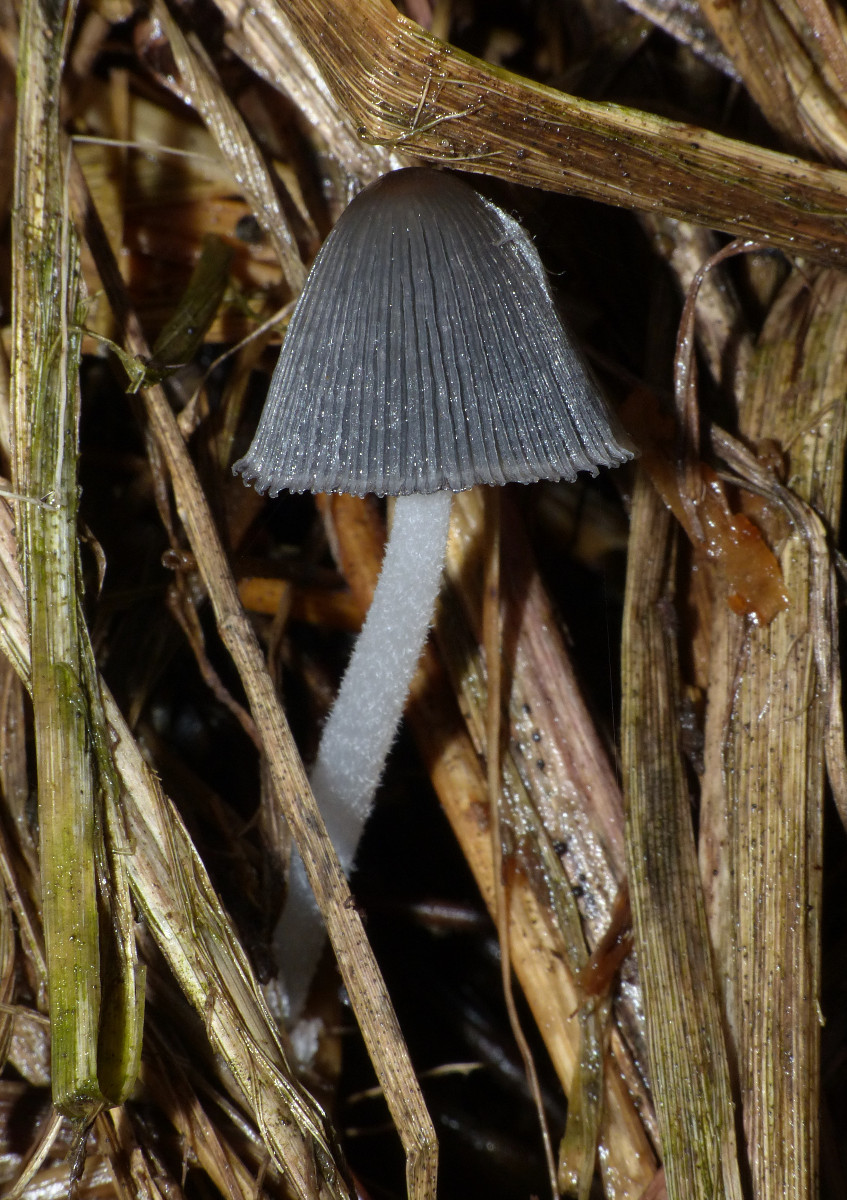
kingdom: Fungi
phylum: Basidiomycota
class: Agaricomycetes
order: Agaricales
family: Psathyrellaceae
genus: Coprinopsis
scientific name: Coprinopsis macrocephala
